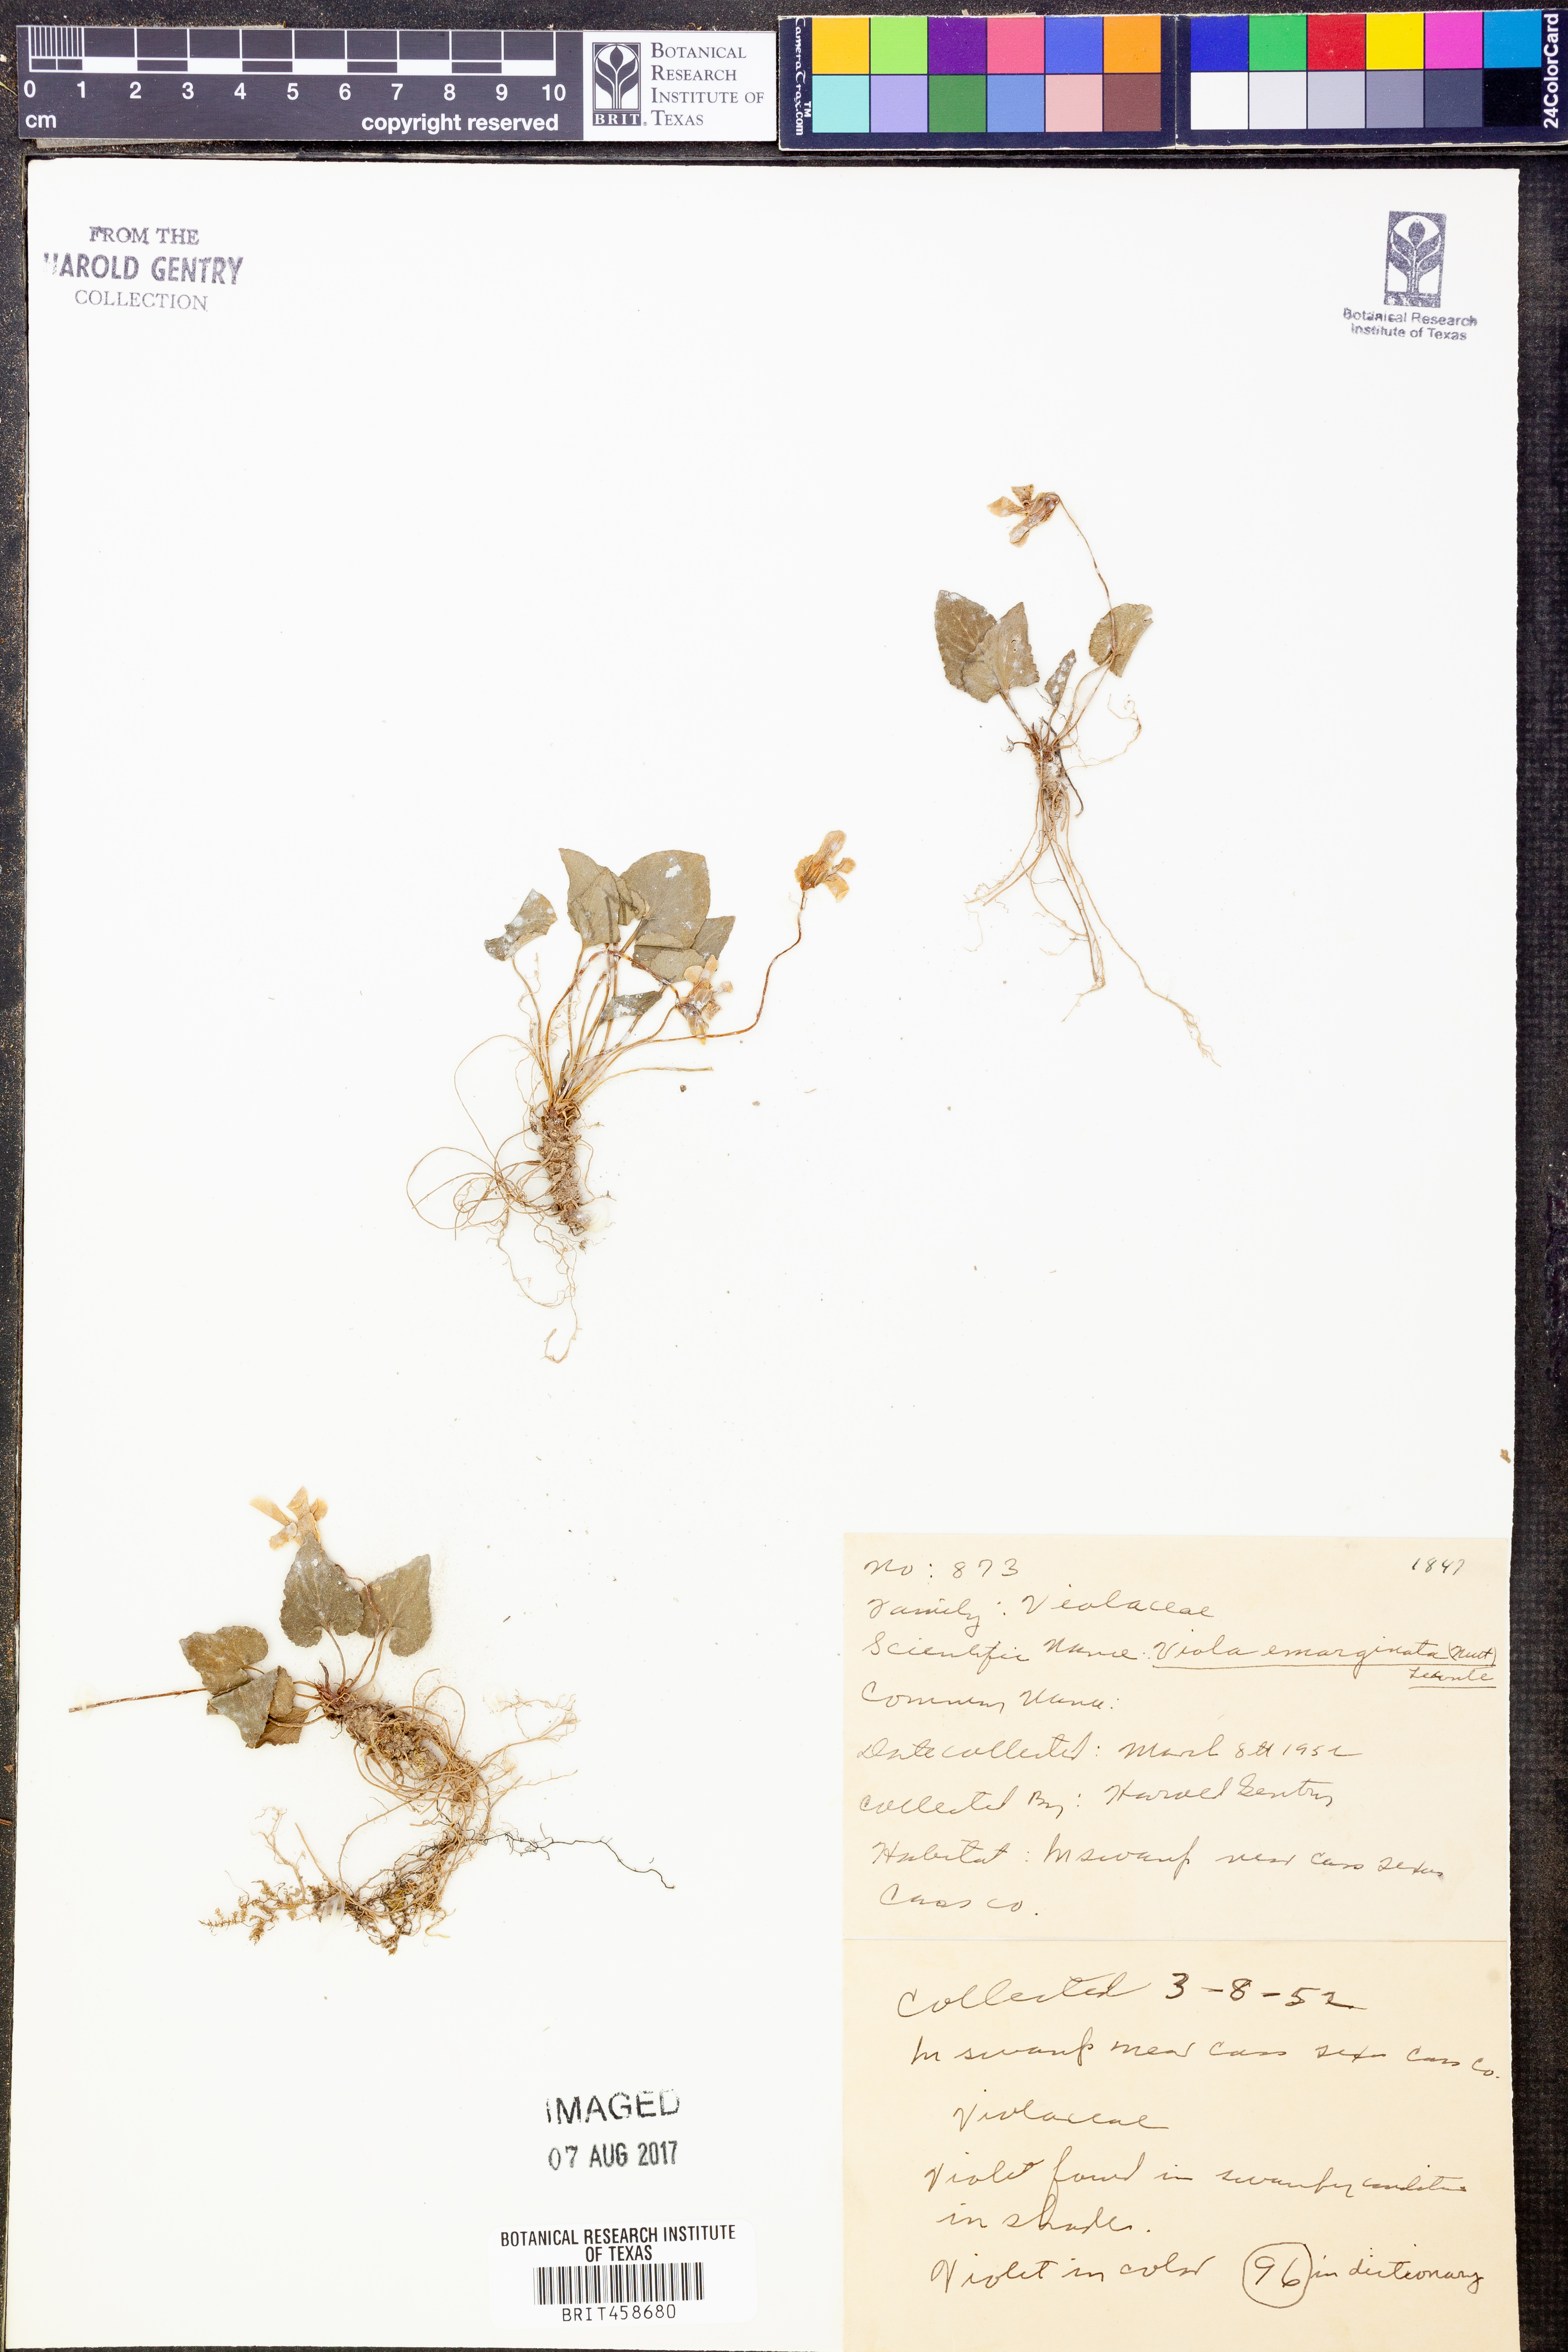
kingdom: Plantae
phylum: Tracheophyta
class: Magnoliopsida
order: Malpighiales
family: Violaceae
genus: Viola
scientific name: Viola emarginata
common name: Triangle-leaved violet
